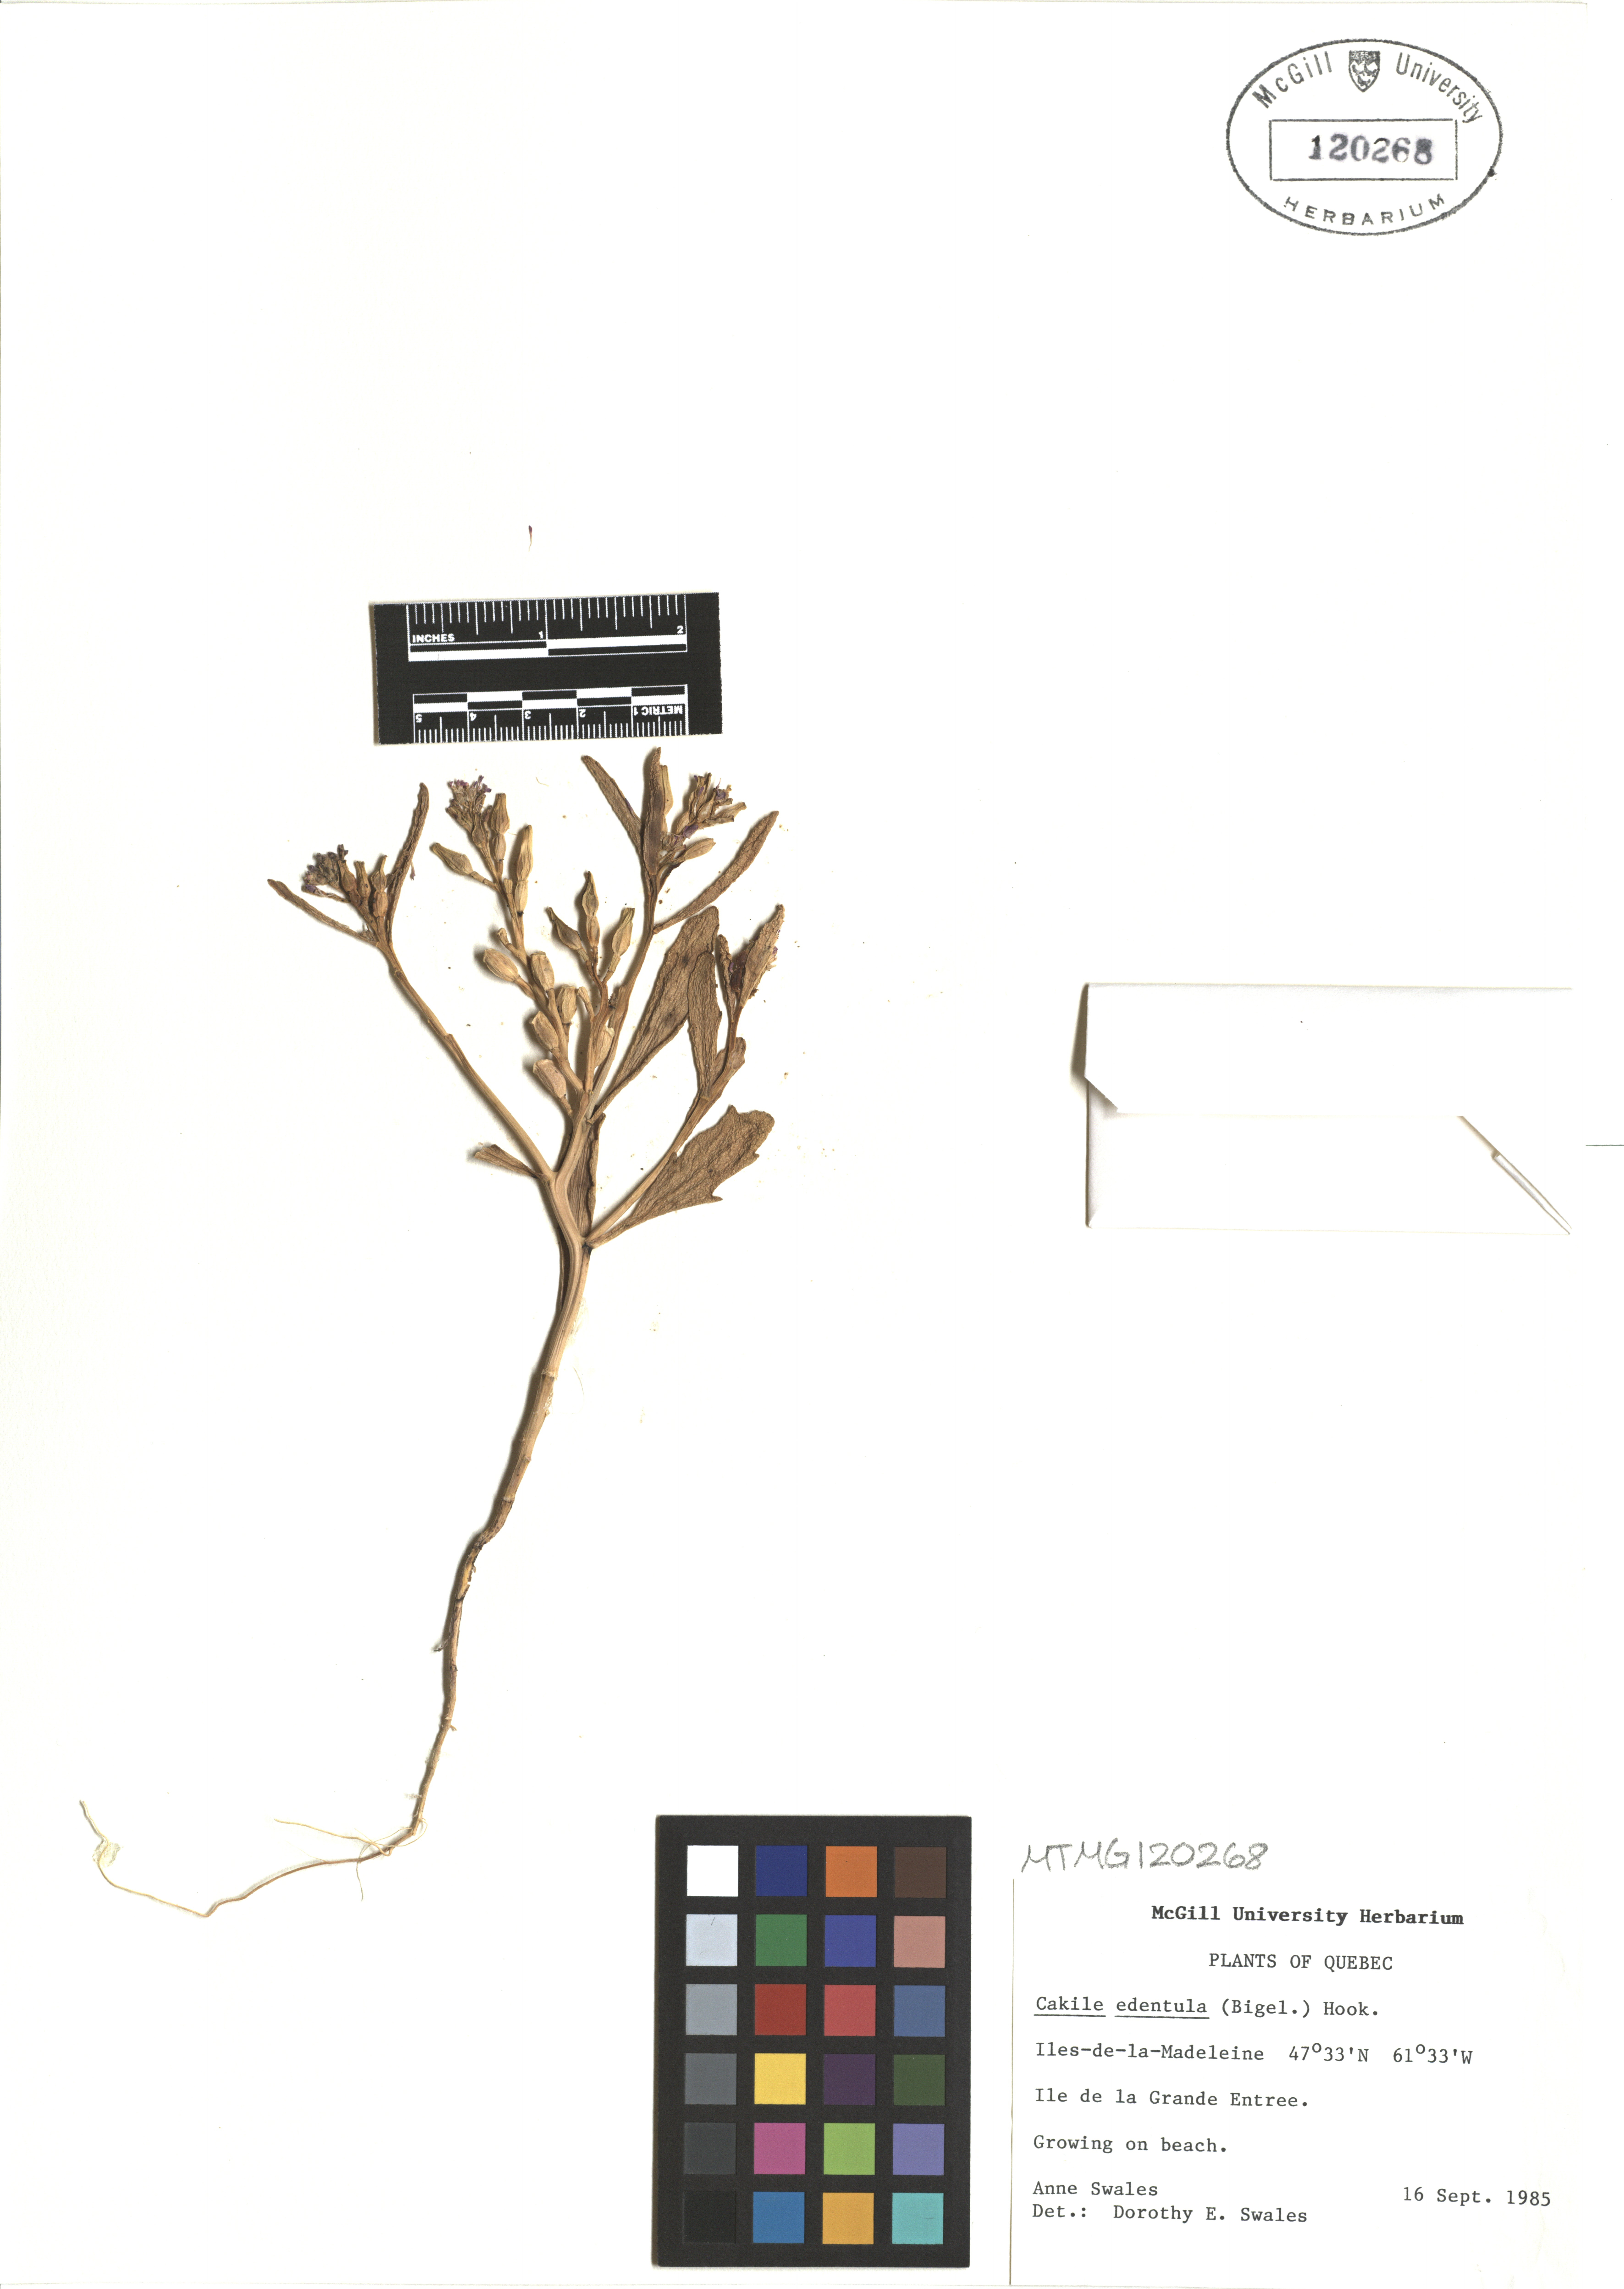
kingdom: Plantae
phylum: Tracheophyta
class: Magnoliopsida
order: Brassicales
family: Brassicaceae
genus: Cakile
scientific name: Cakile edentula
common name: American sea rocket
